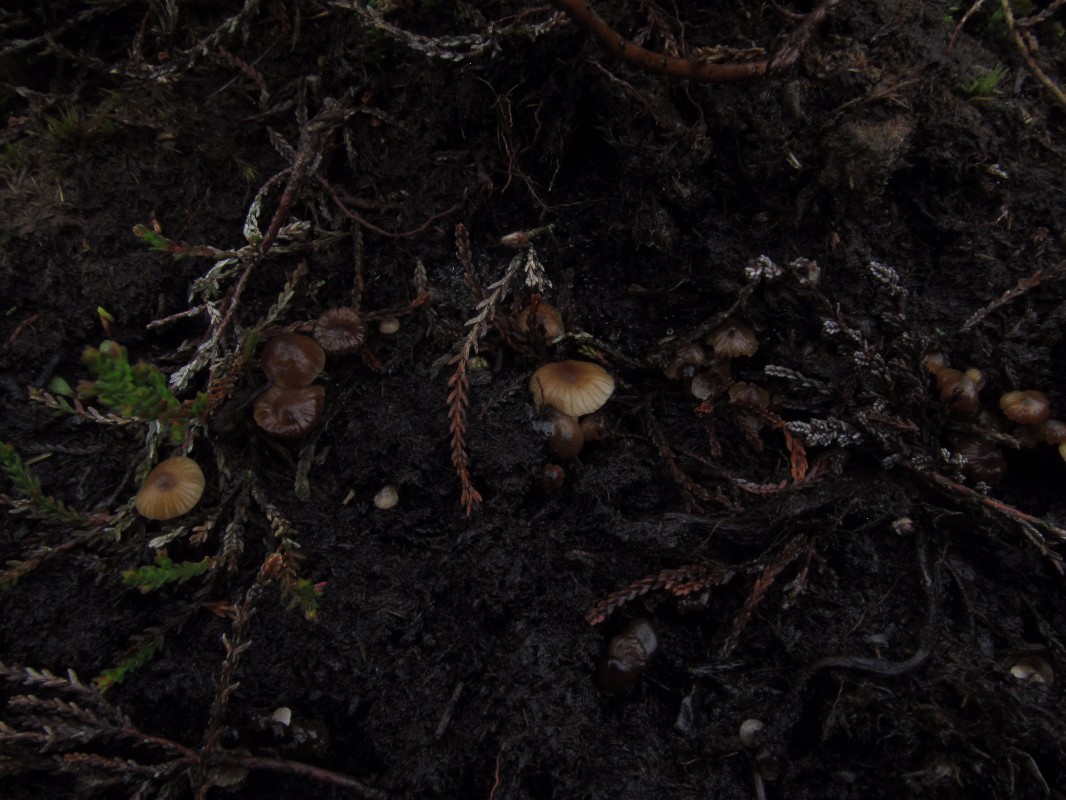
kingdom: Fungi
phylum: Basidiomycota
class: Agaricomycetes
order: Agaricales
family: Lyophyllaceae
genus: Sagaranella
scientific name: Sagaranella tylicolor
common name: kvælstof-gråblad
